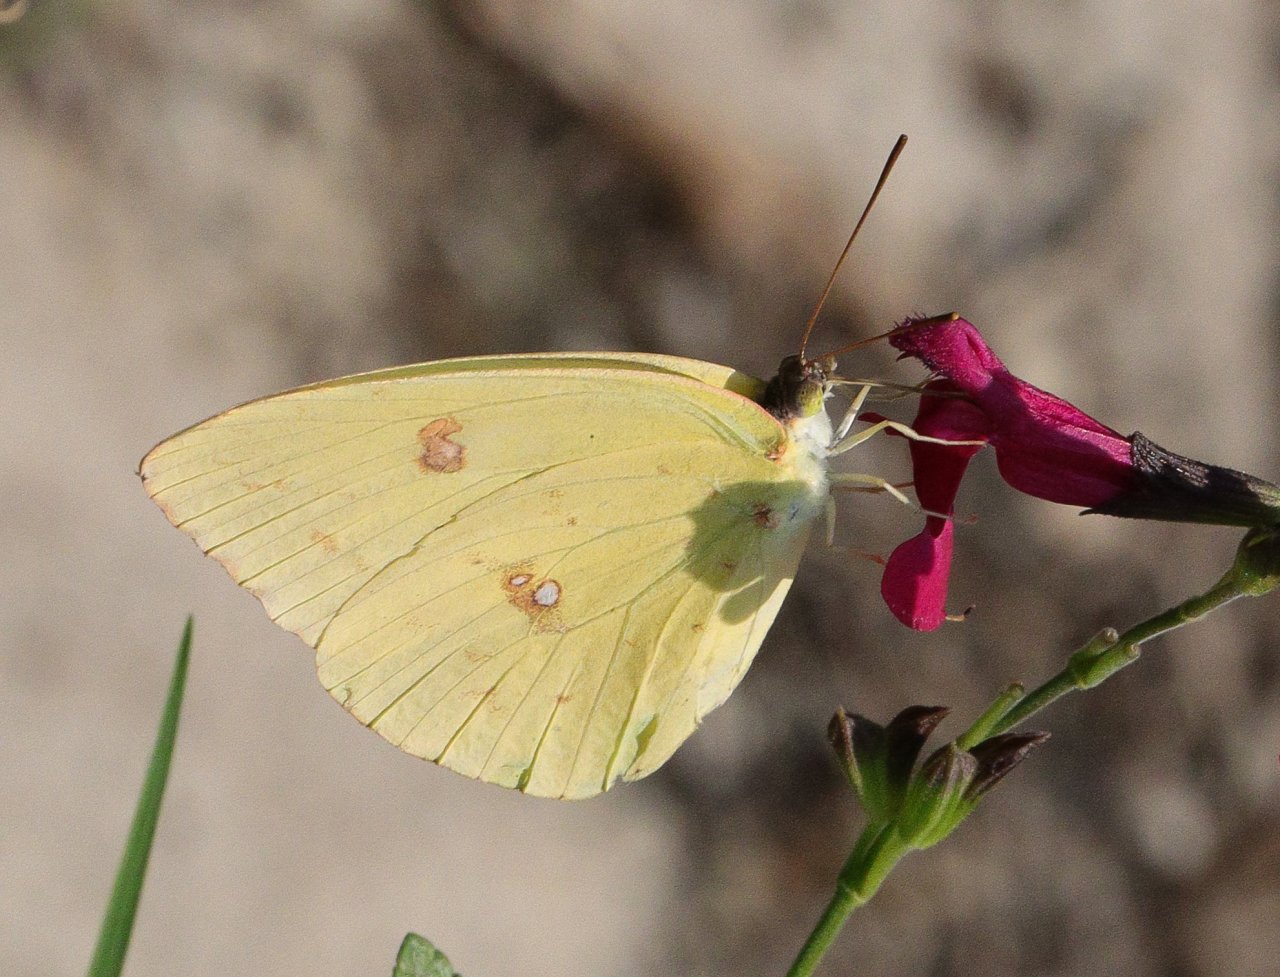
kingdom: Animalia
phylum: Arthropoda
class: Insecta
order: Lepidoptera
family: Pieridae
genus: Phoebis
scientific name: Phoebis sennae
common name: Cloudless Sulphur
